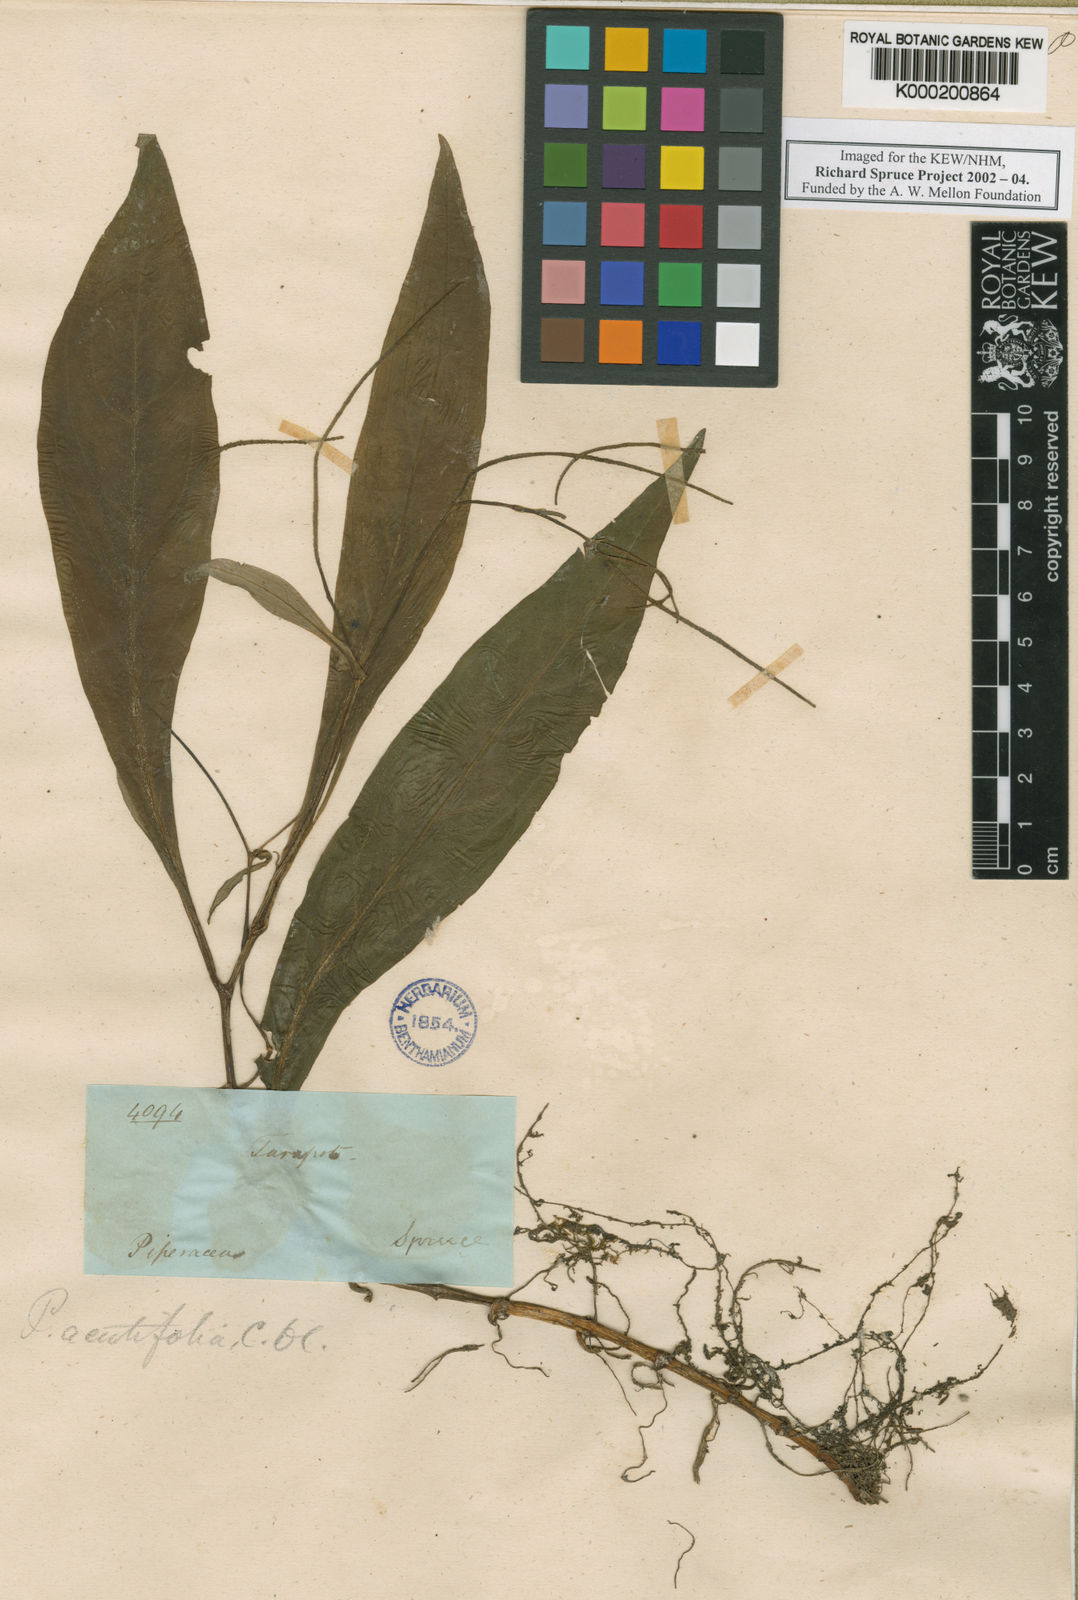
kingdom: Plantae
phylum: Tracheophyta
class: Magnoliopsida
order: Piperales
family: Piperaceae
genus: Peperomia
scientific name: Peperomia lancifolia
